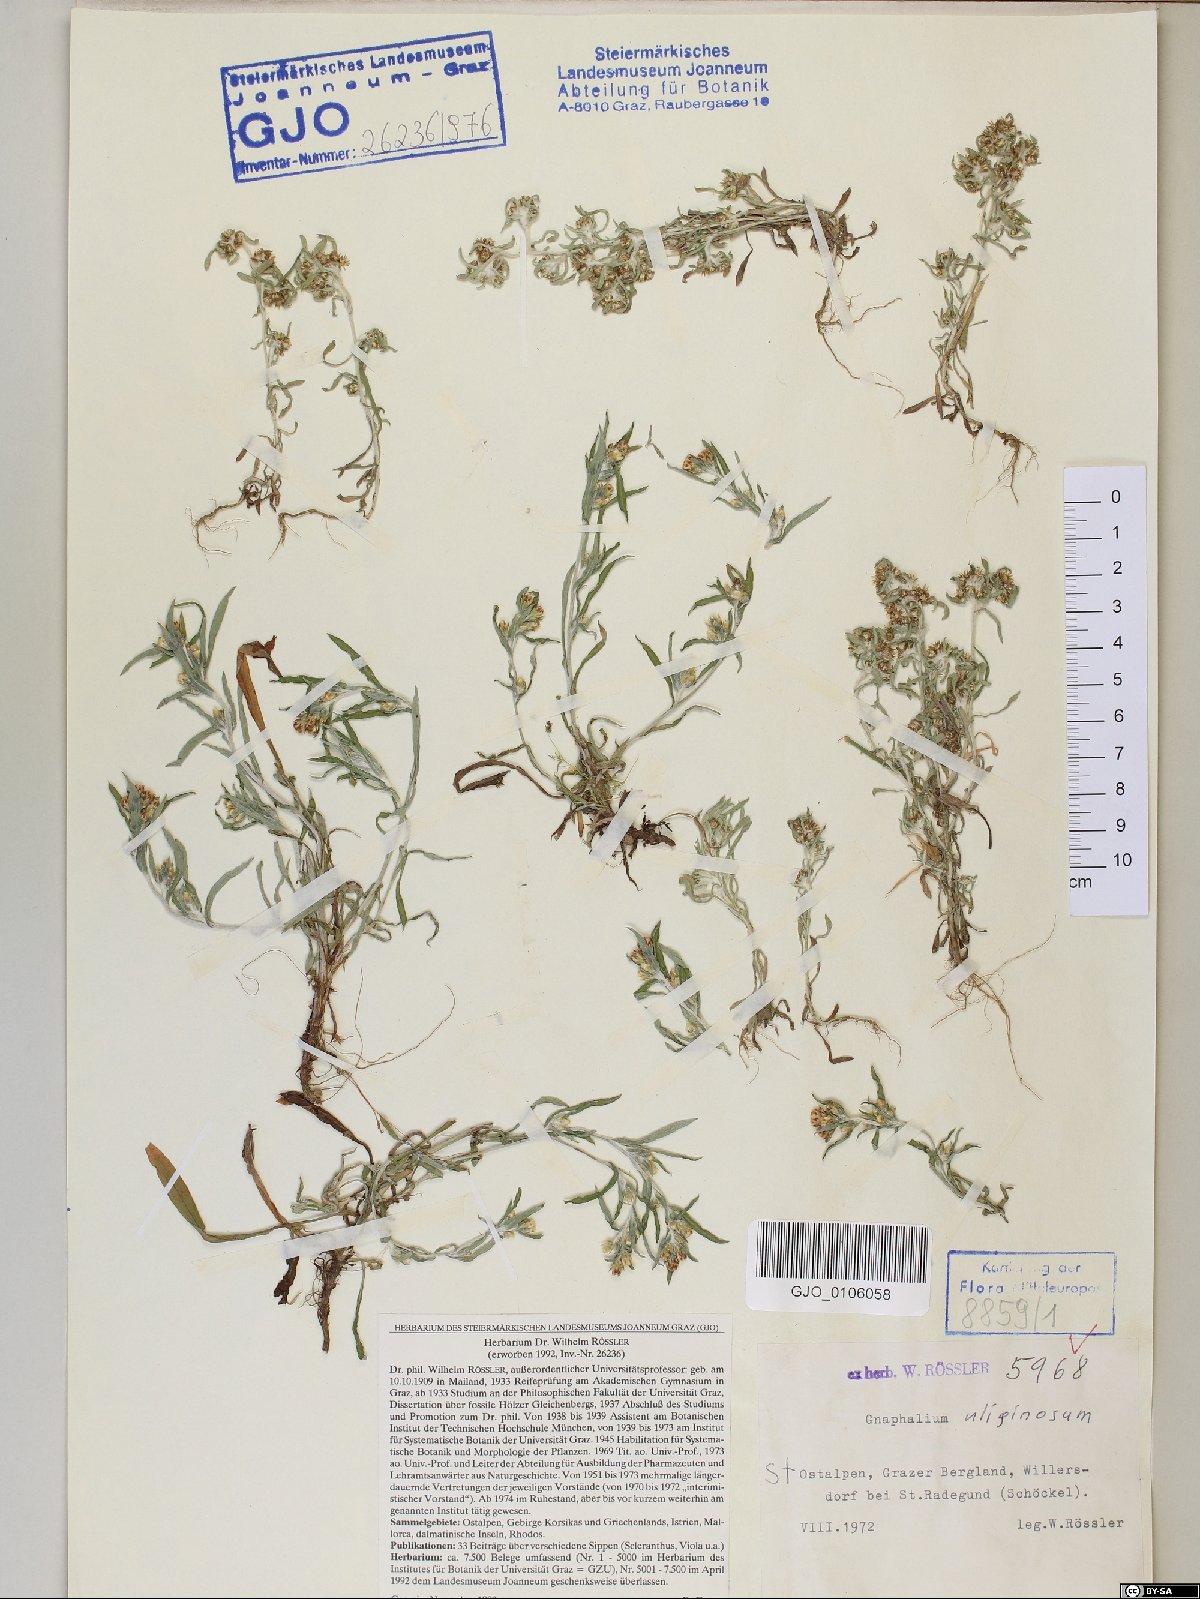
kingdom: Plantae
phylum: Tracheophyta
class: Magnoliopsida
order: Asterales
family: Asteraceae
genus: Gnaphalium
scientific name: Gnaphalium uliginosum
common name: Marsh cudweed
